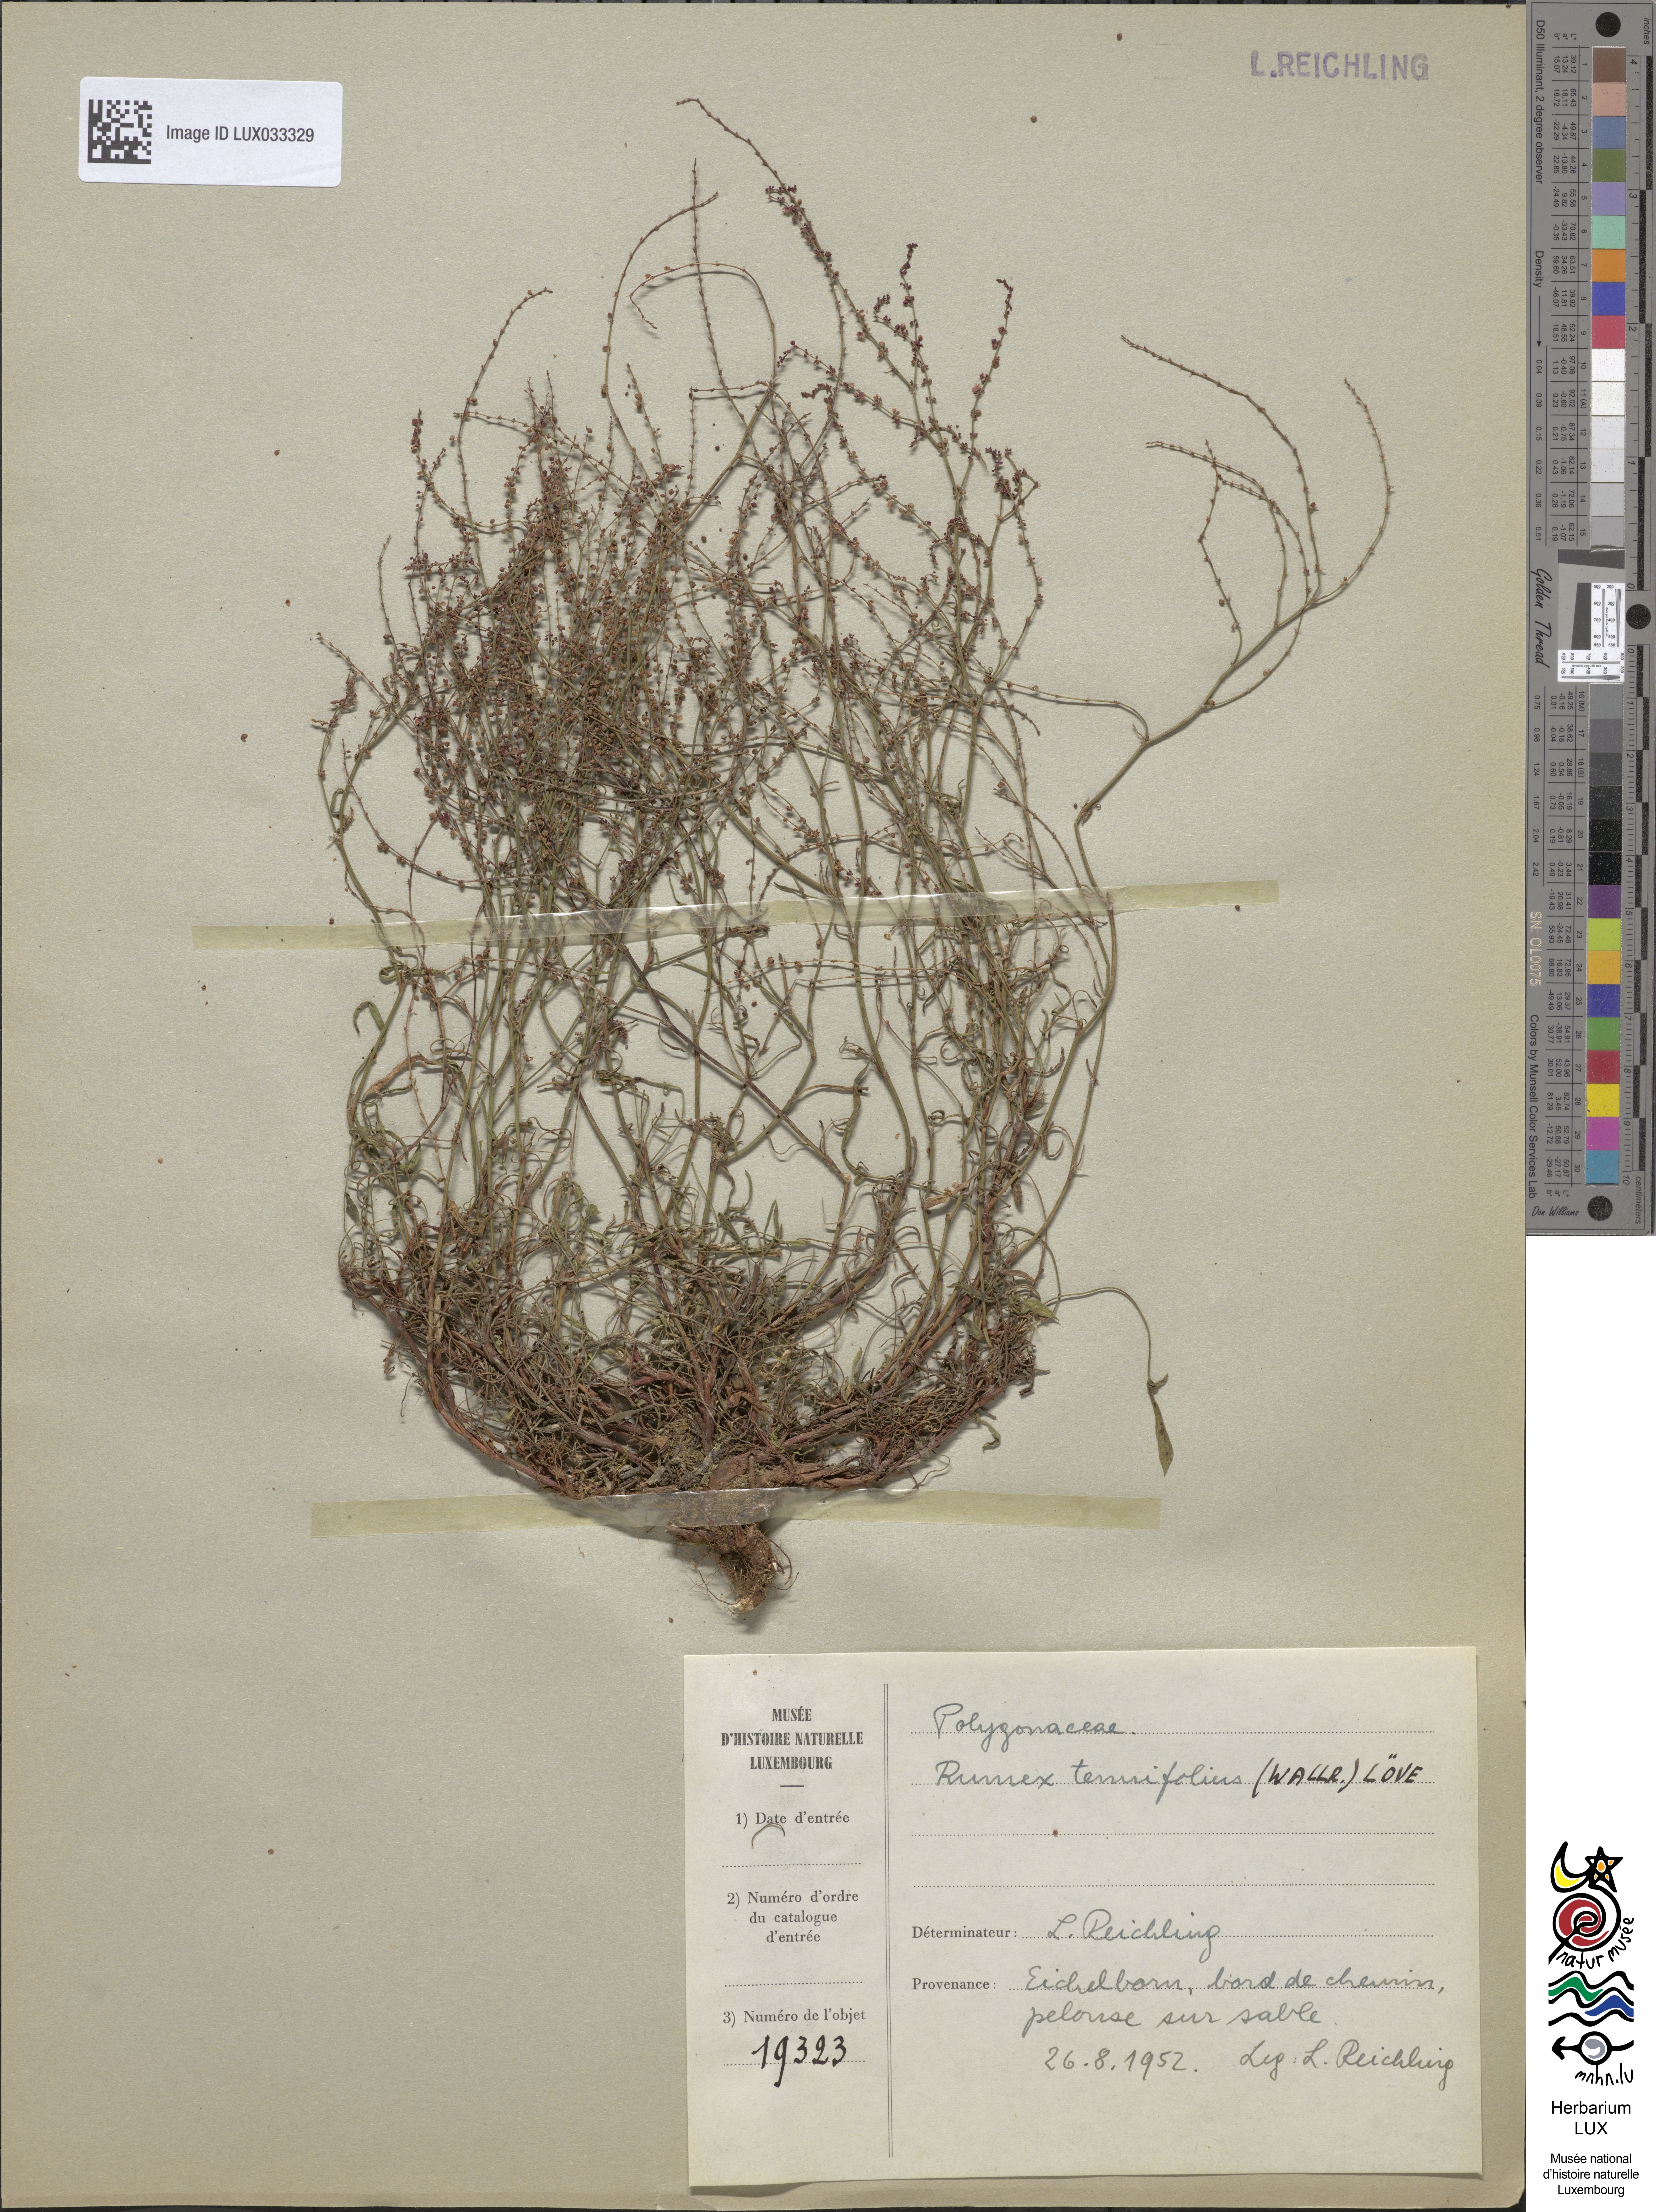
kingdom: Plantae
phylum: Tracheophyta
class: Magnoliopsida
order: Caryophyllales
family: Polygonaceae
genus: Rumex
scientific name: Rumex acetosella
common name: Common sheep sorrel
